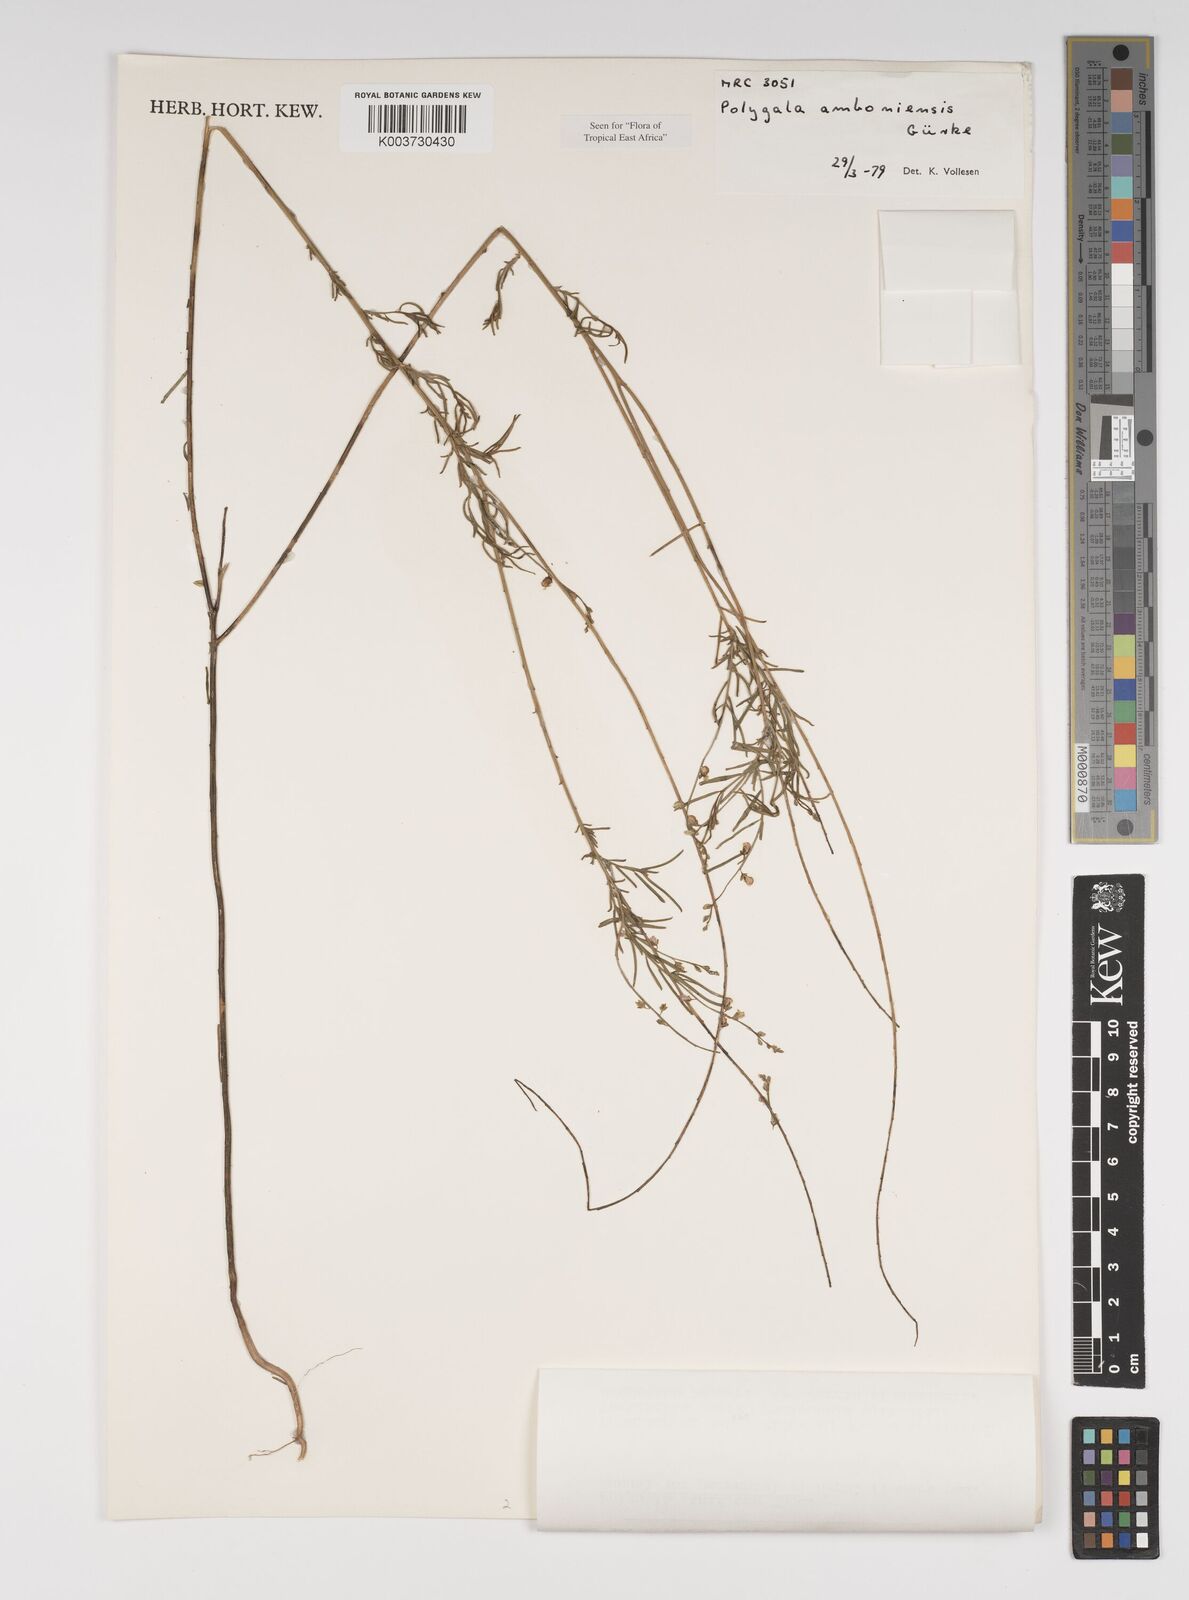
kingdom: Plantae
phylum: Tracheophyta
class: Magnoliopsida
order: Fabales
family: Polygalaceae
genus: Polygala
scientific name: Polygala amboniensis
